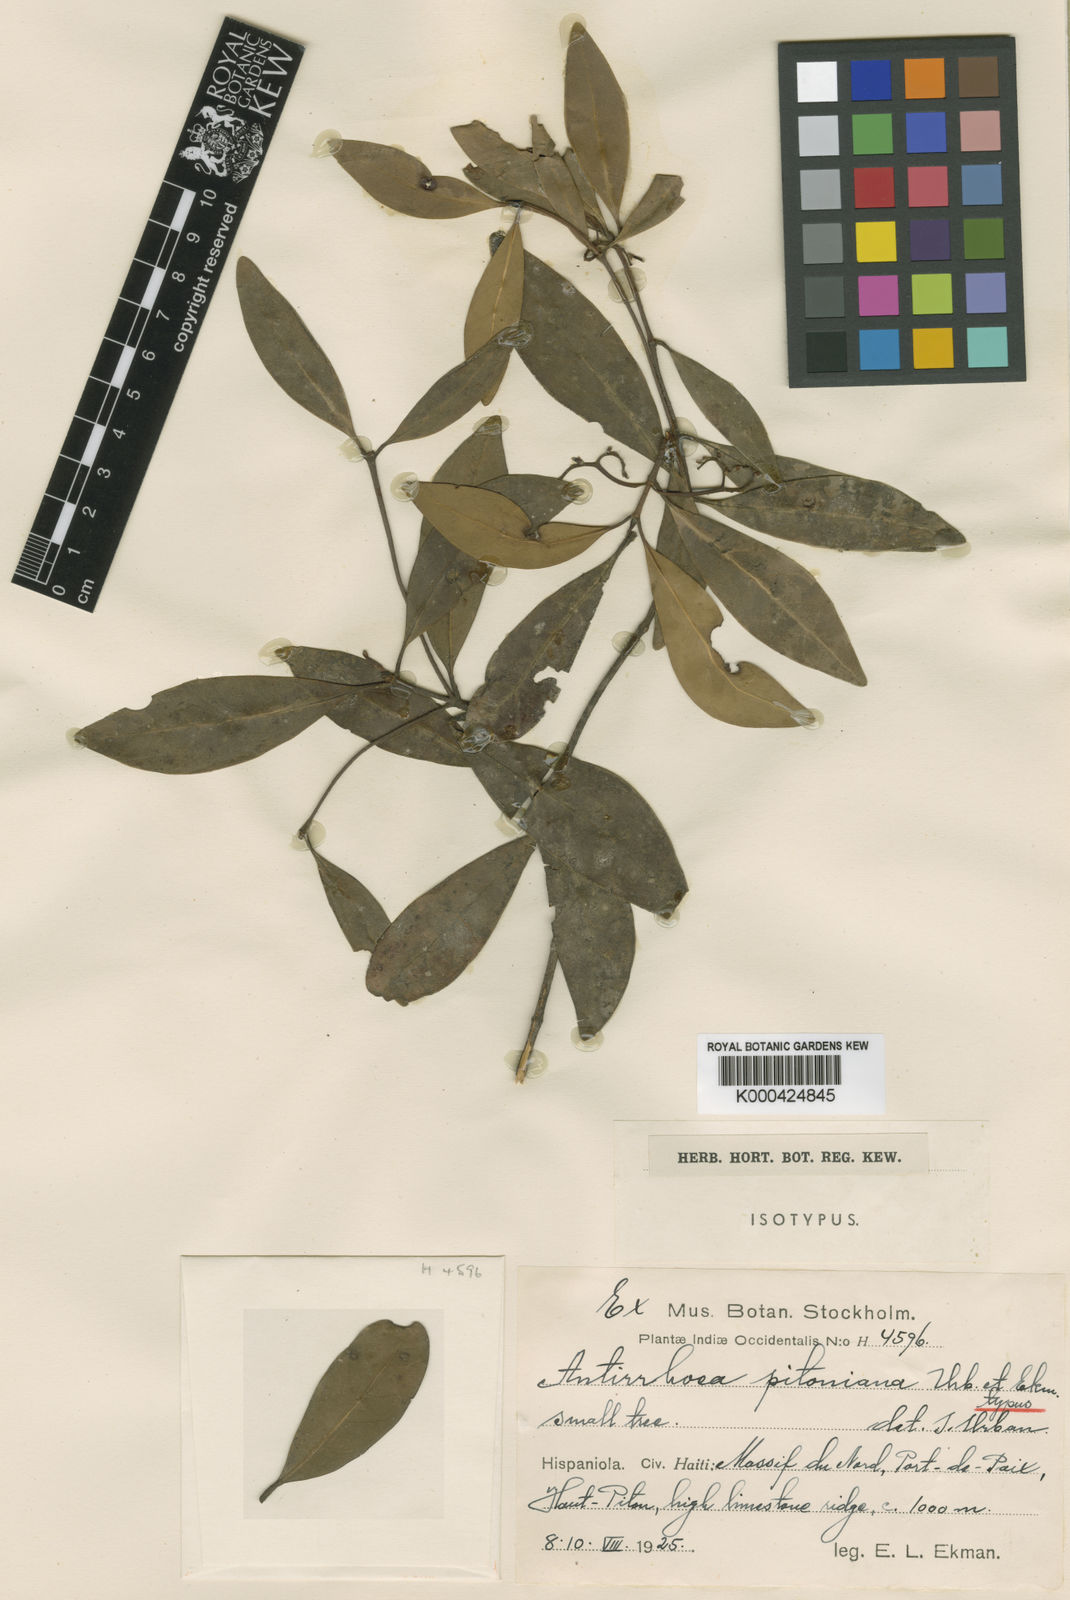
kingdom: Plantae
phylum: Tracheophyta
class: Magnoliopsida
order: Gentianales
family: Rubiaceae
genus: Stenostomum
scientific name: Stenostomum pitonianum
